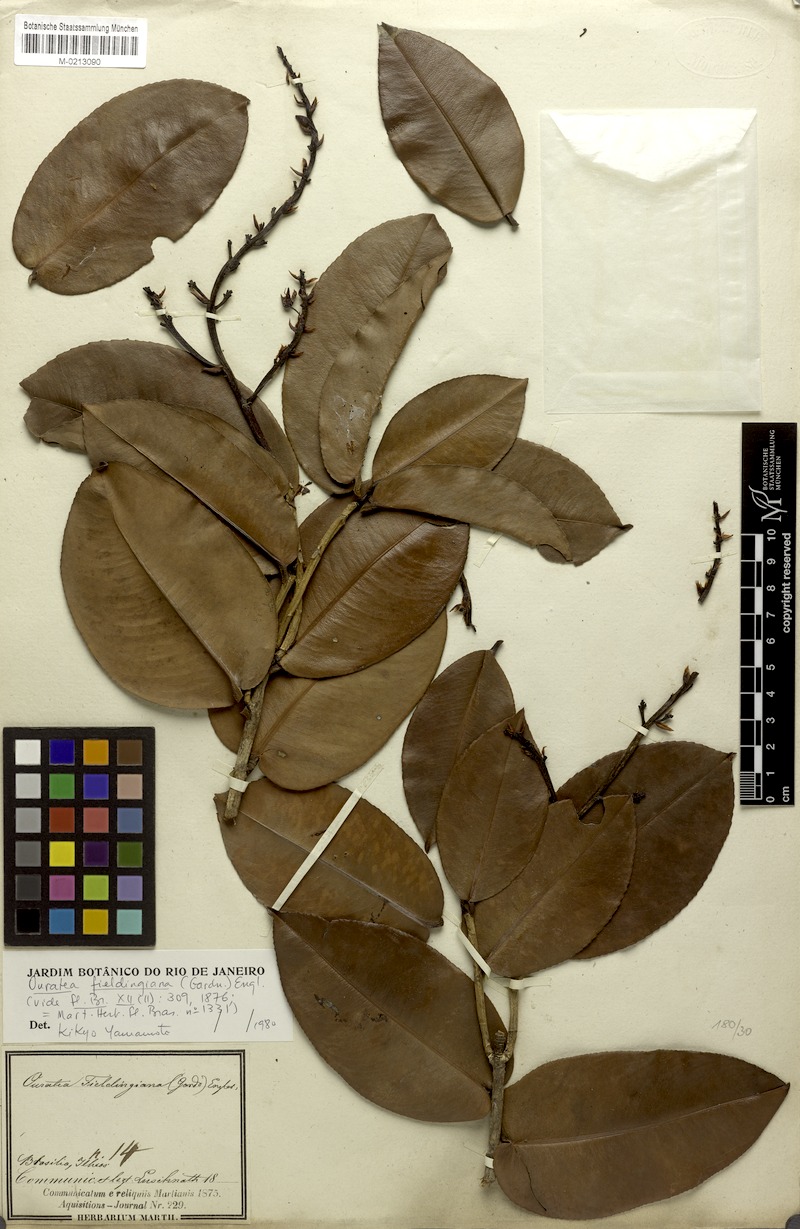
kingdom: Plantae
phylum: Tracheophyta
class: Magnoliopsida
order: Malpighiales
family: Ochnaceae
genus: Ouratea
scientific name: Ouratea fieldingiana
